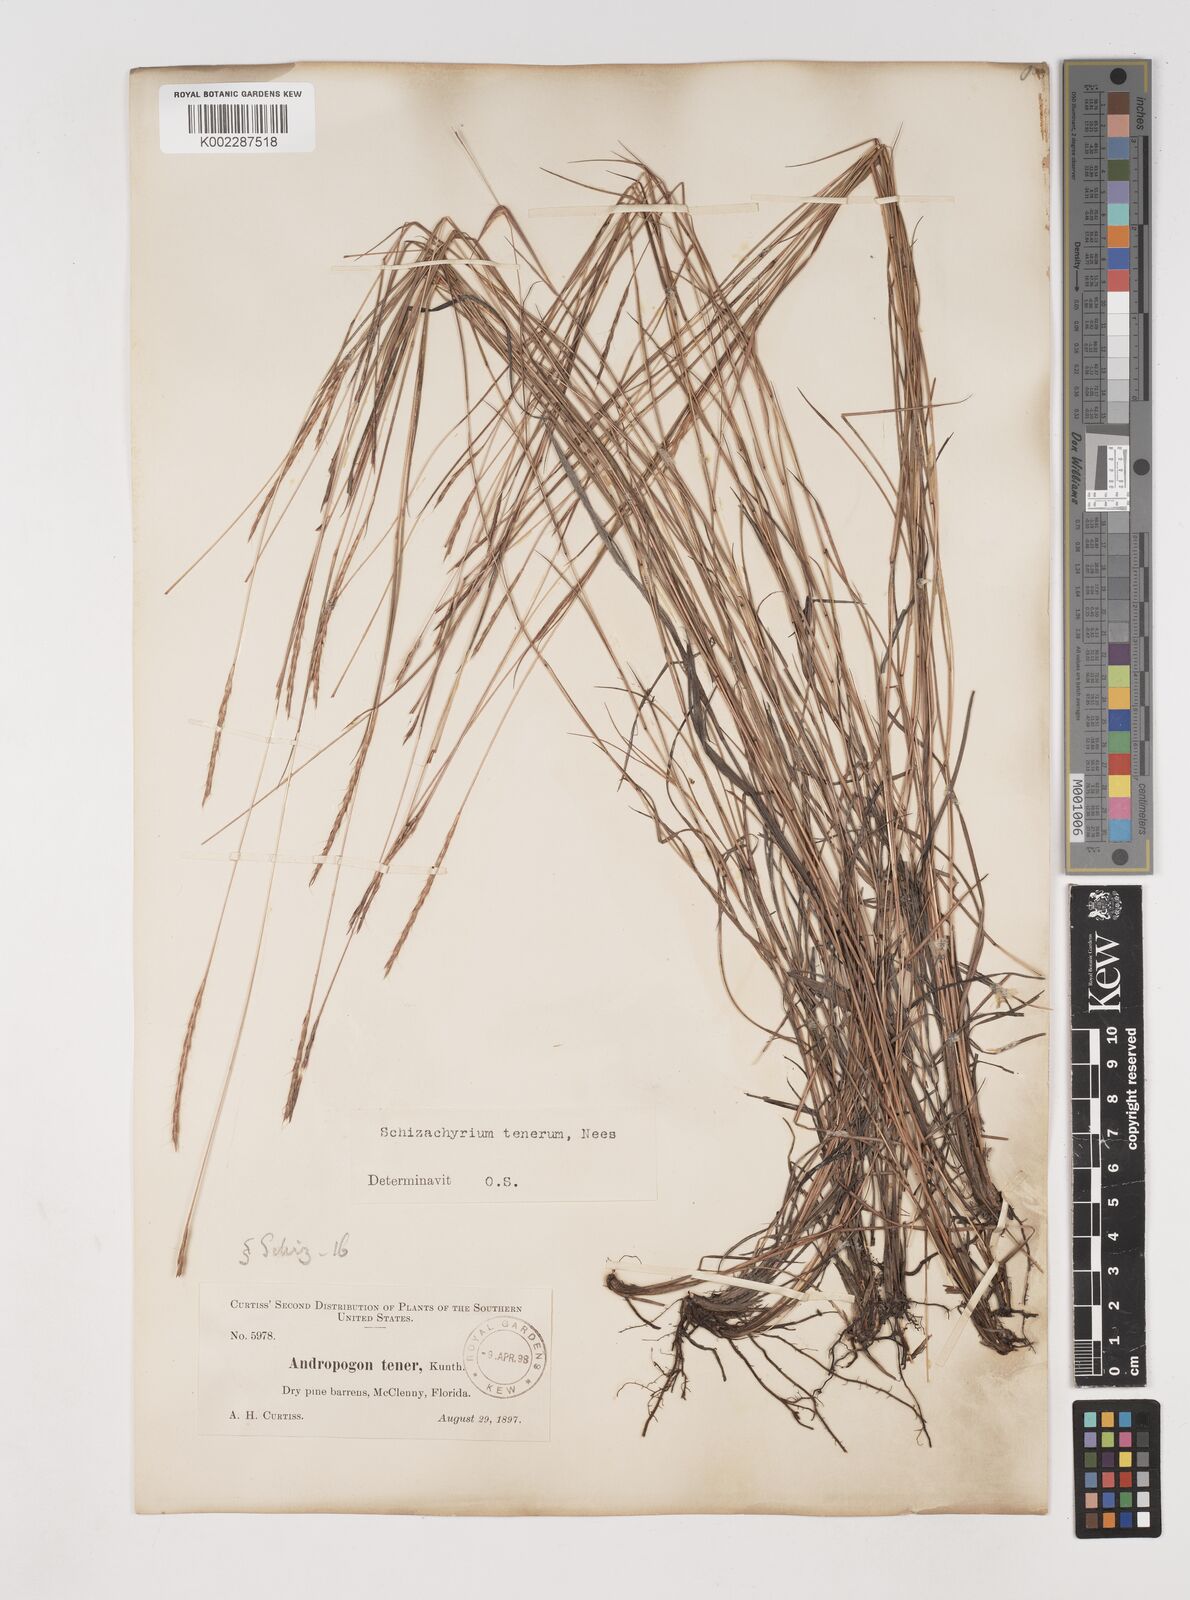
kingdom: Plantae
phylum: Tracheophyta
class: Liliopsida
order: Poales
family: Poaceae
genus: Andropogon
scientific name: Andropogon tener
